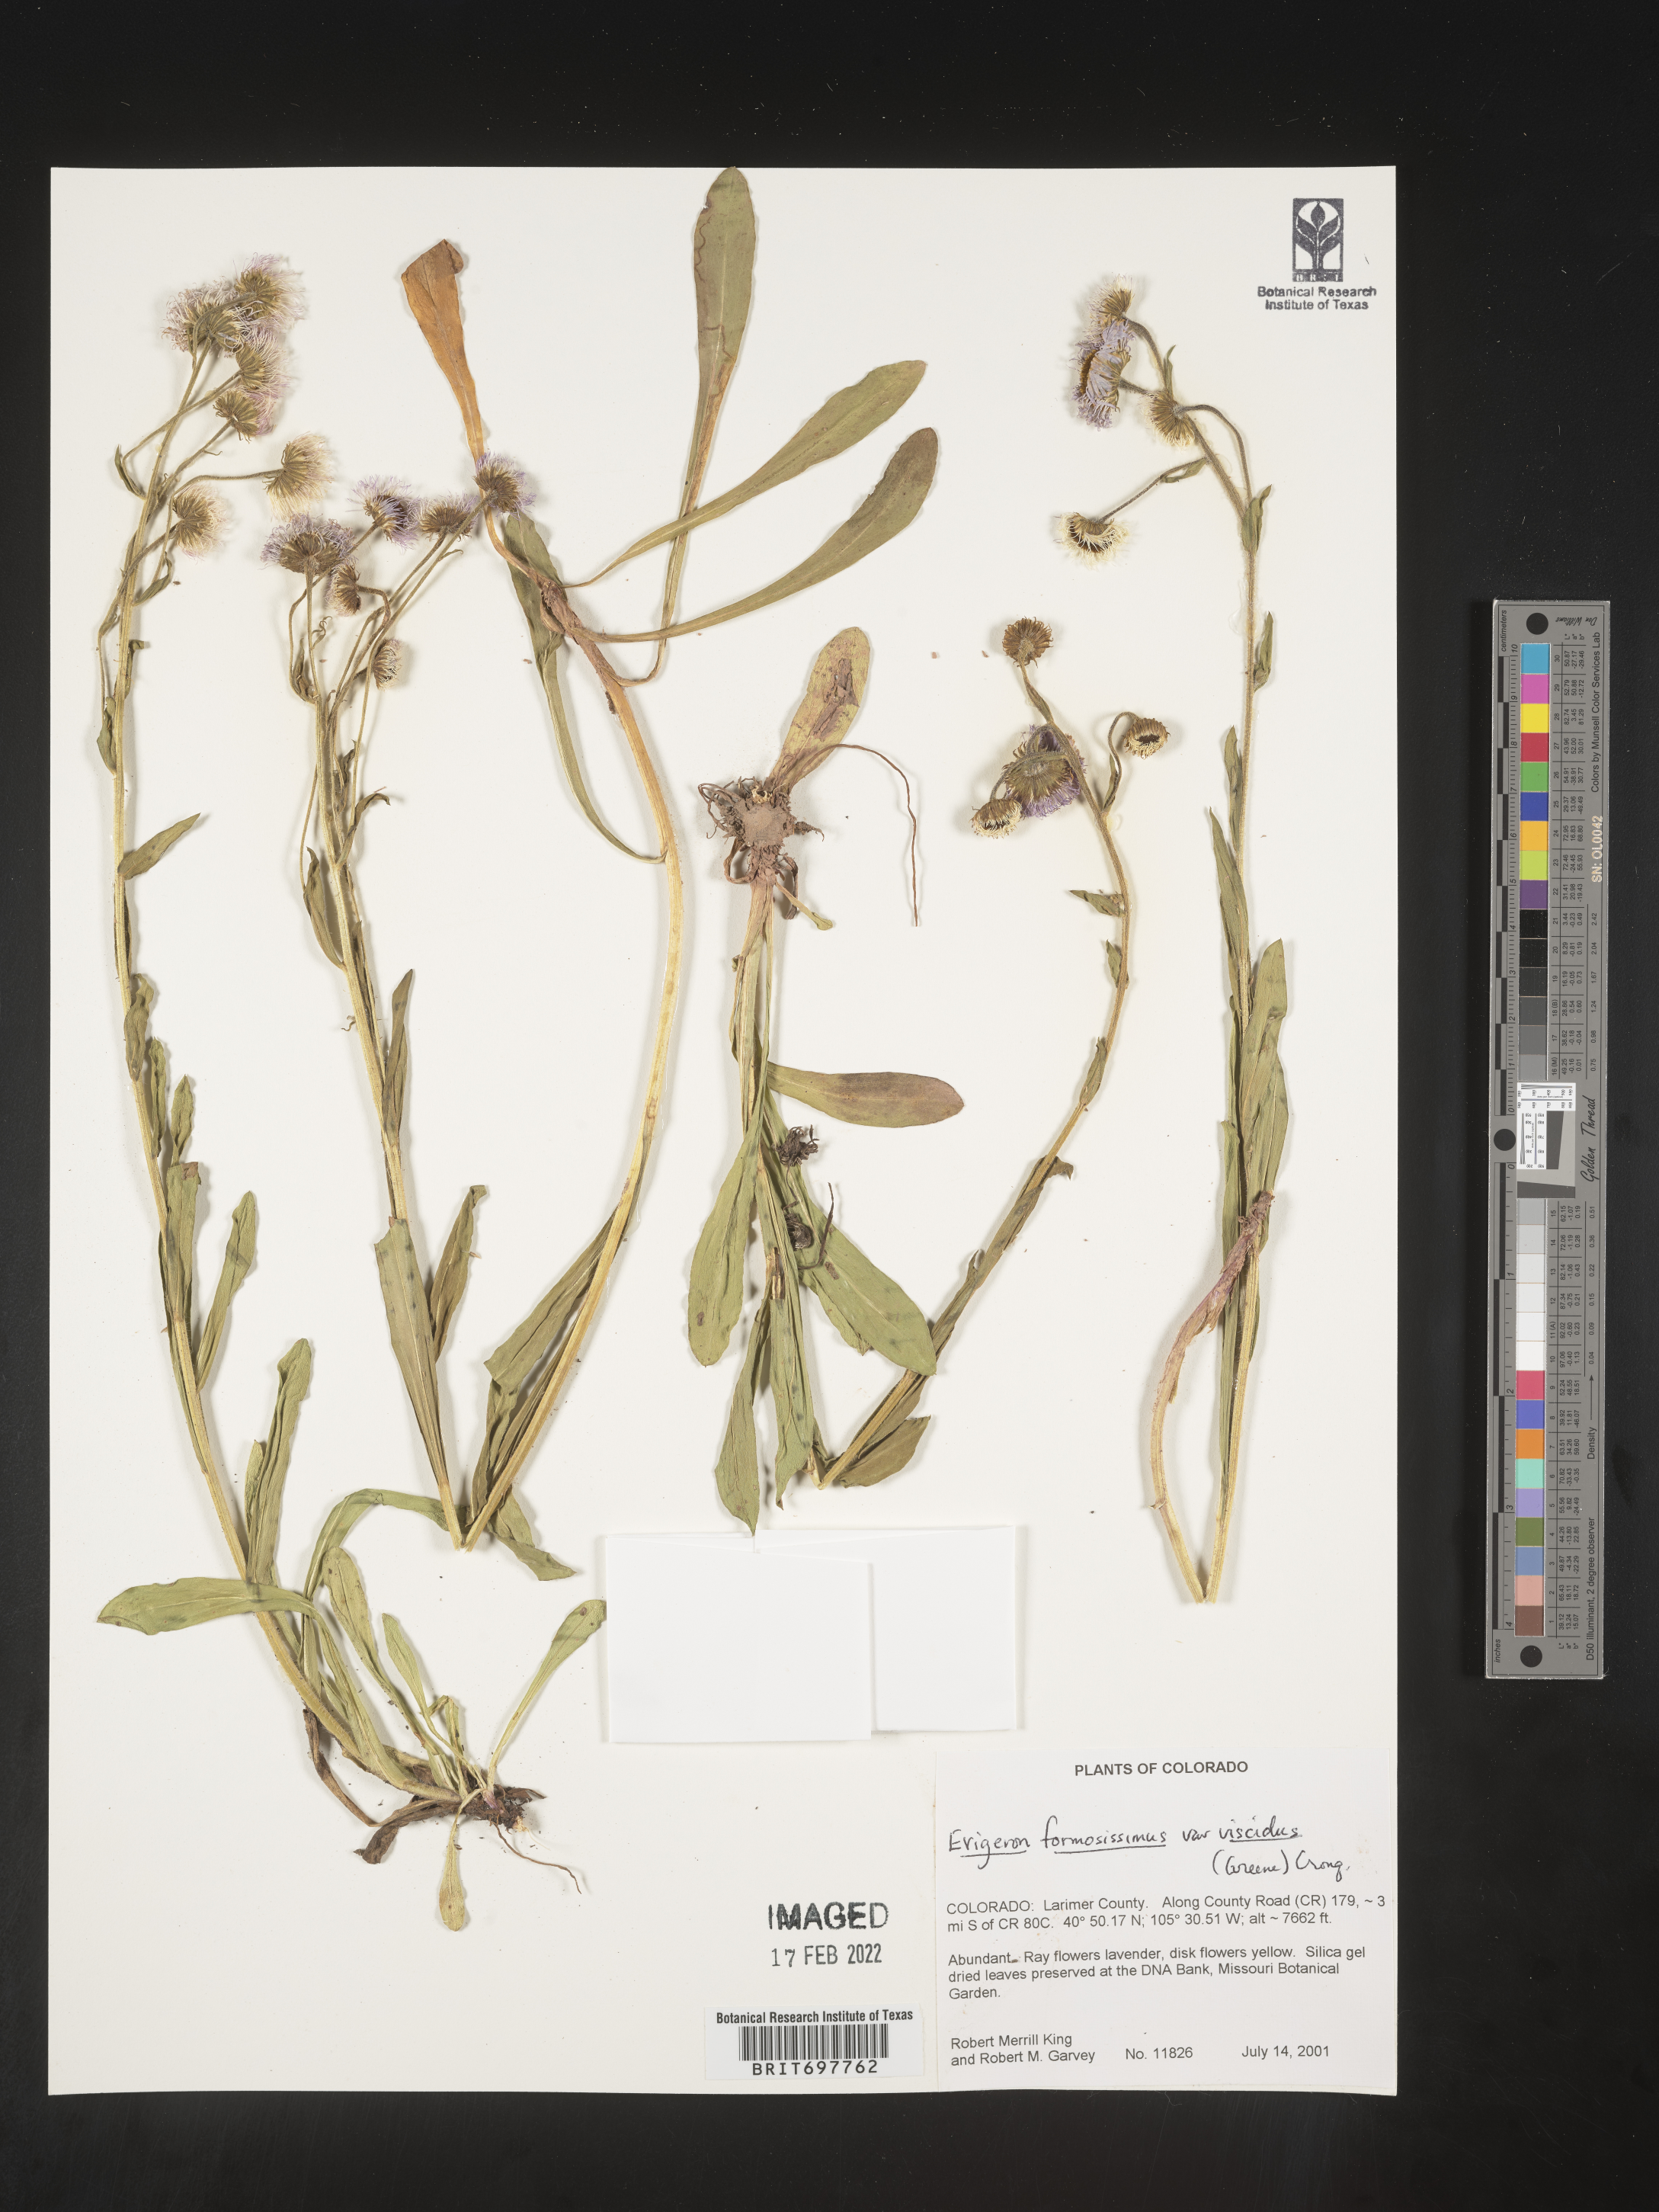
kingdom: Plantae
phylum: Tracheophyta
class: Magnoliopsida
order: Asterales
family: Asteraceae
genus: Erigeron
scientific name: Erigeron formosissimus
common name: Beautiful fleabane
